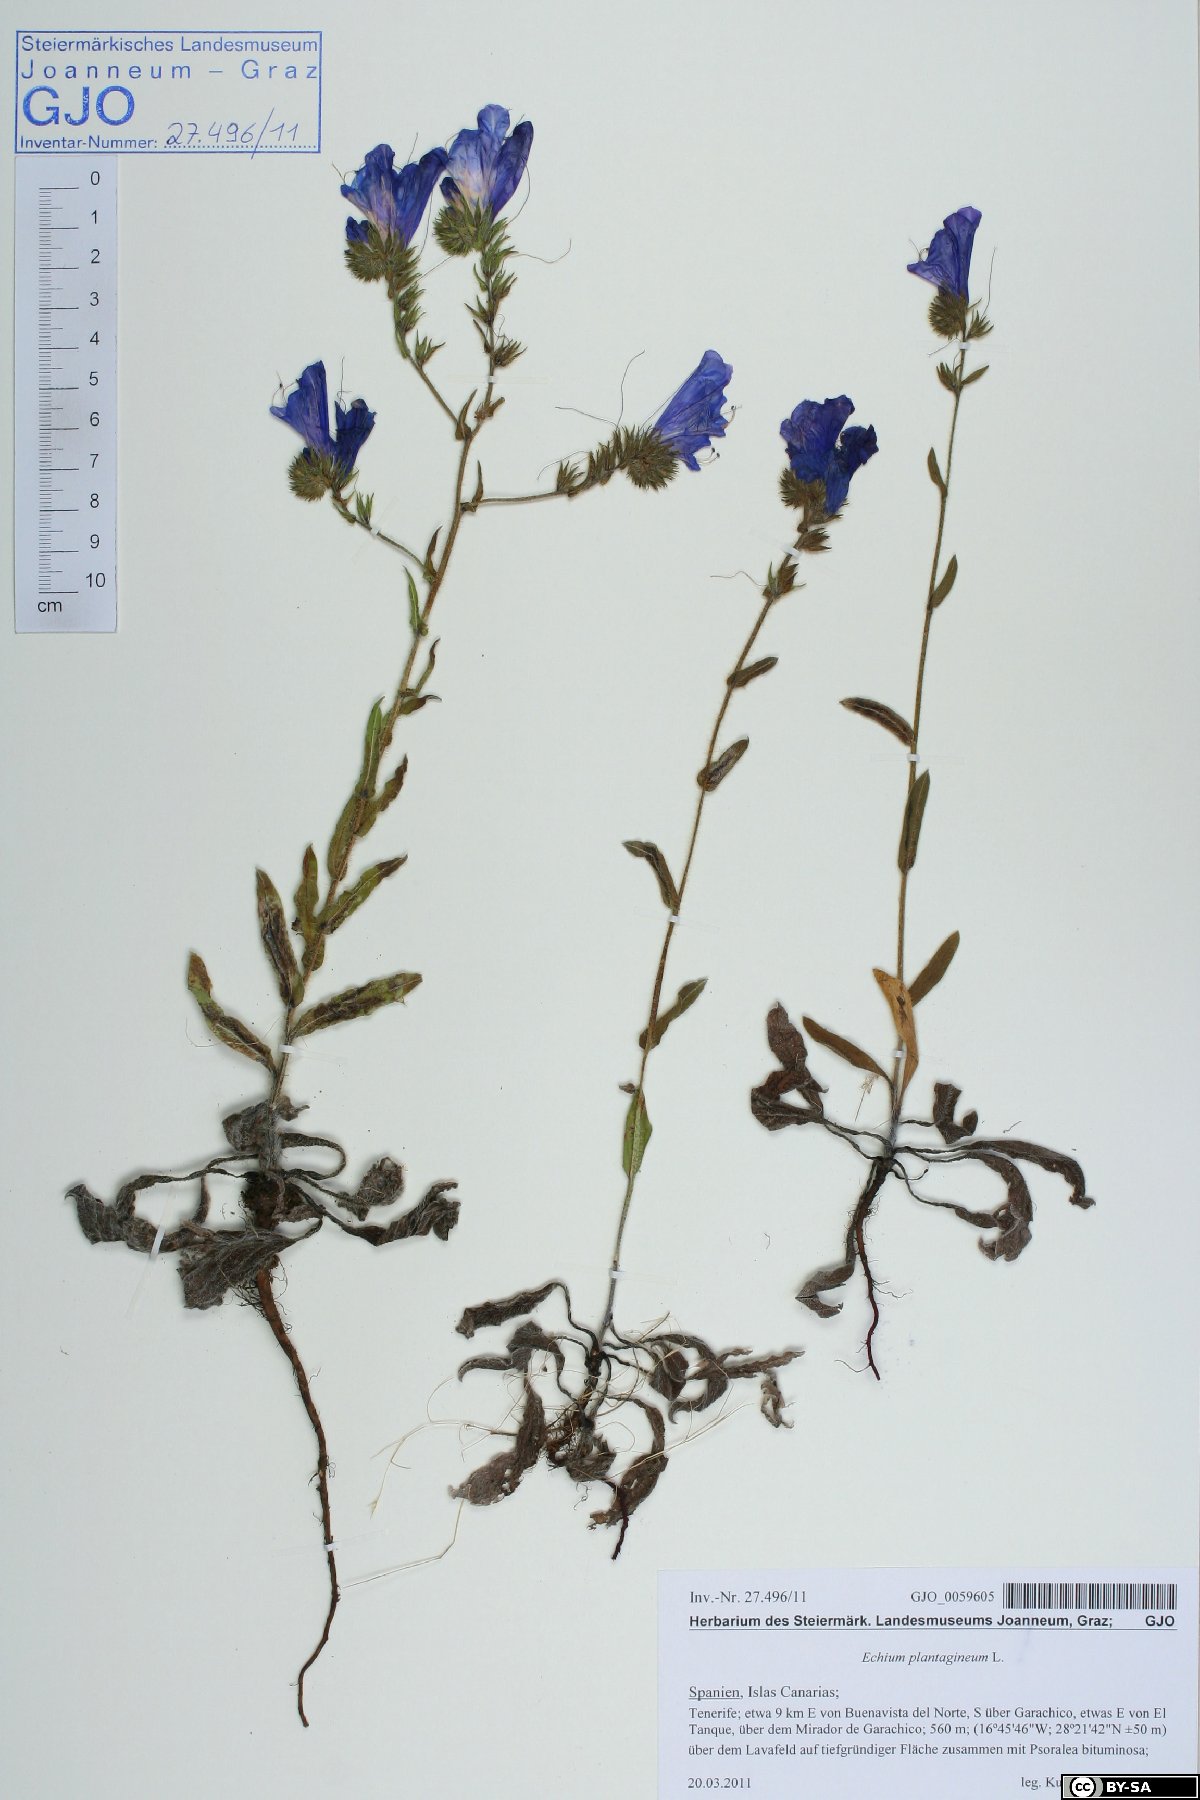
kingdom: Plantae
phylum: Tracheophyta
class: Magnoliopsida
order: Boraginales
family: Boraginaceae
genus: Echium
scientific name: Echium plantagineum
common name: Purple viper's-bugloss
